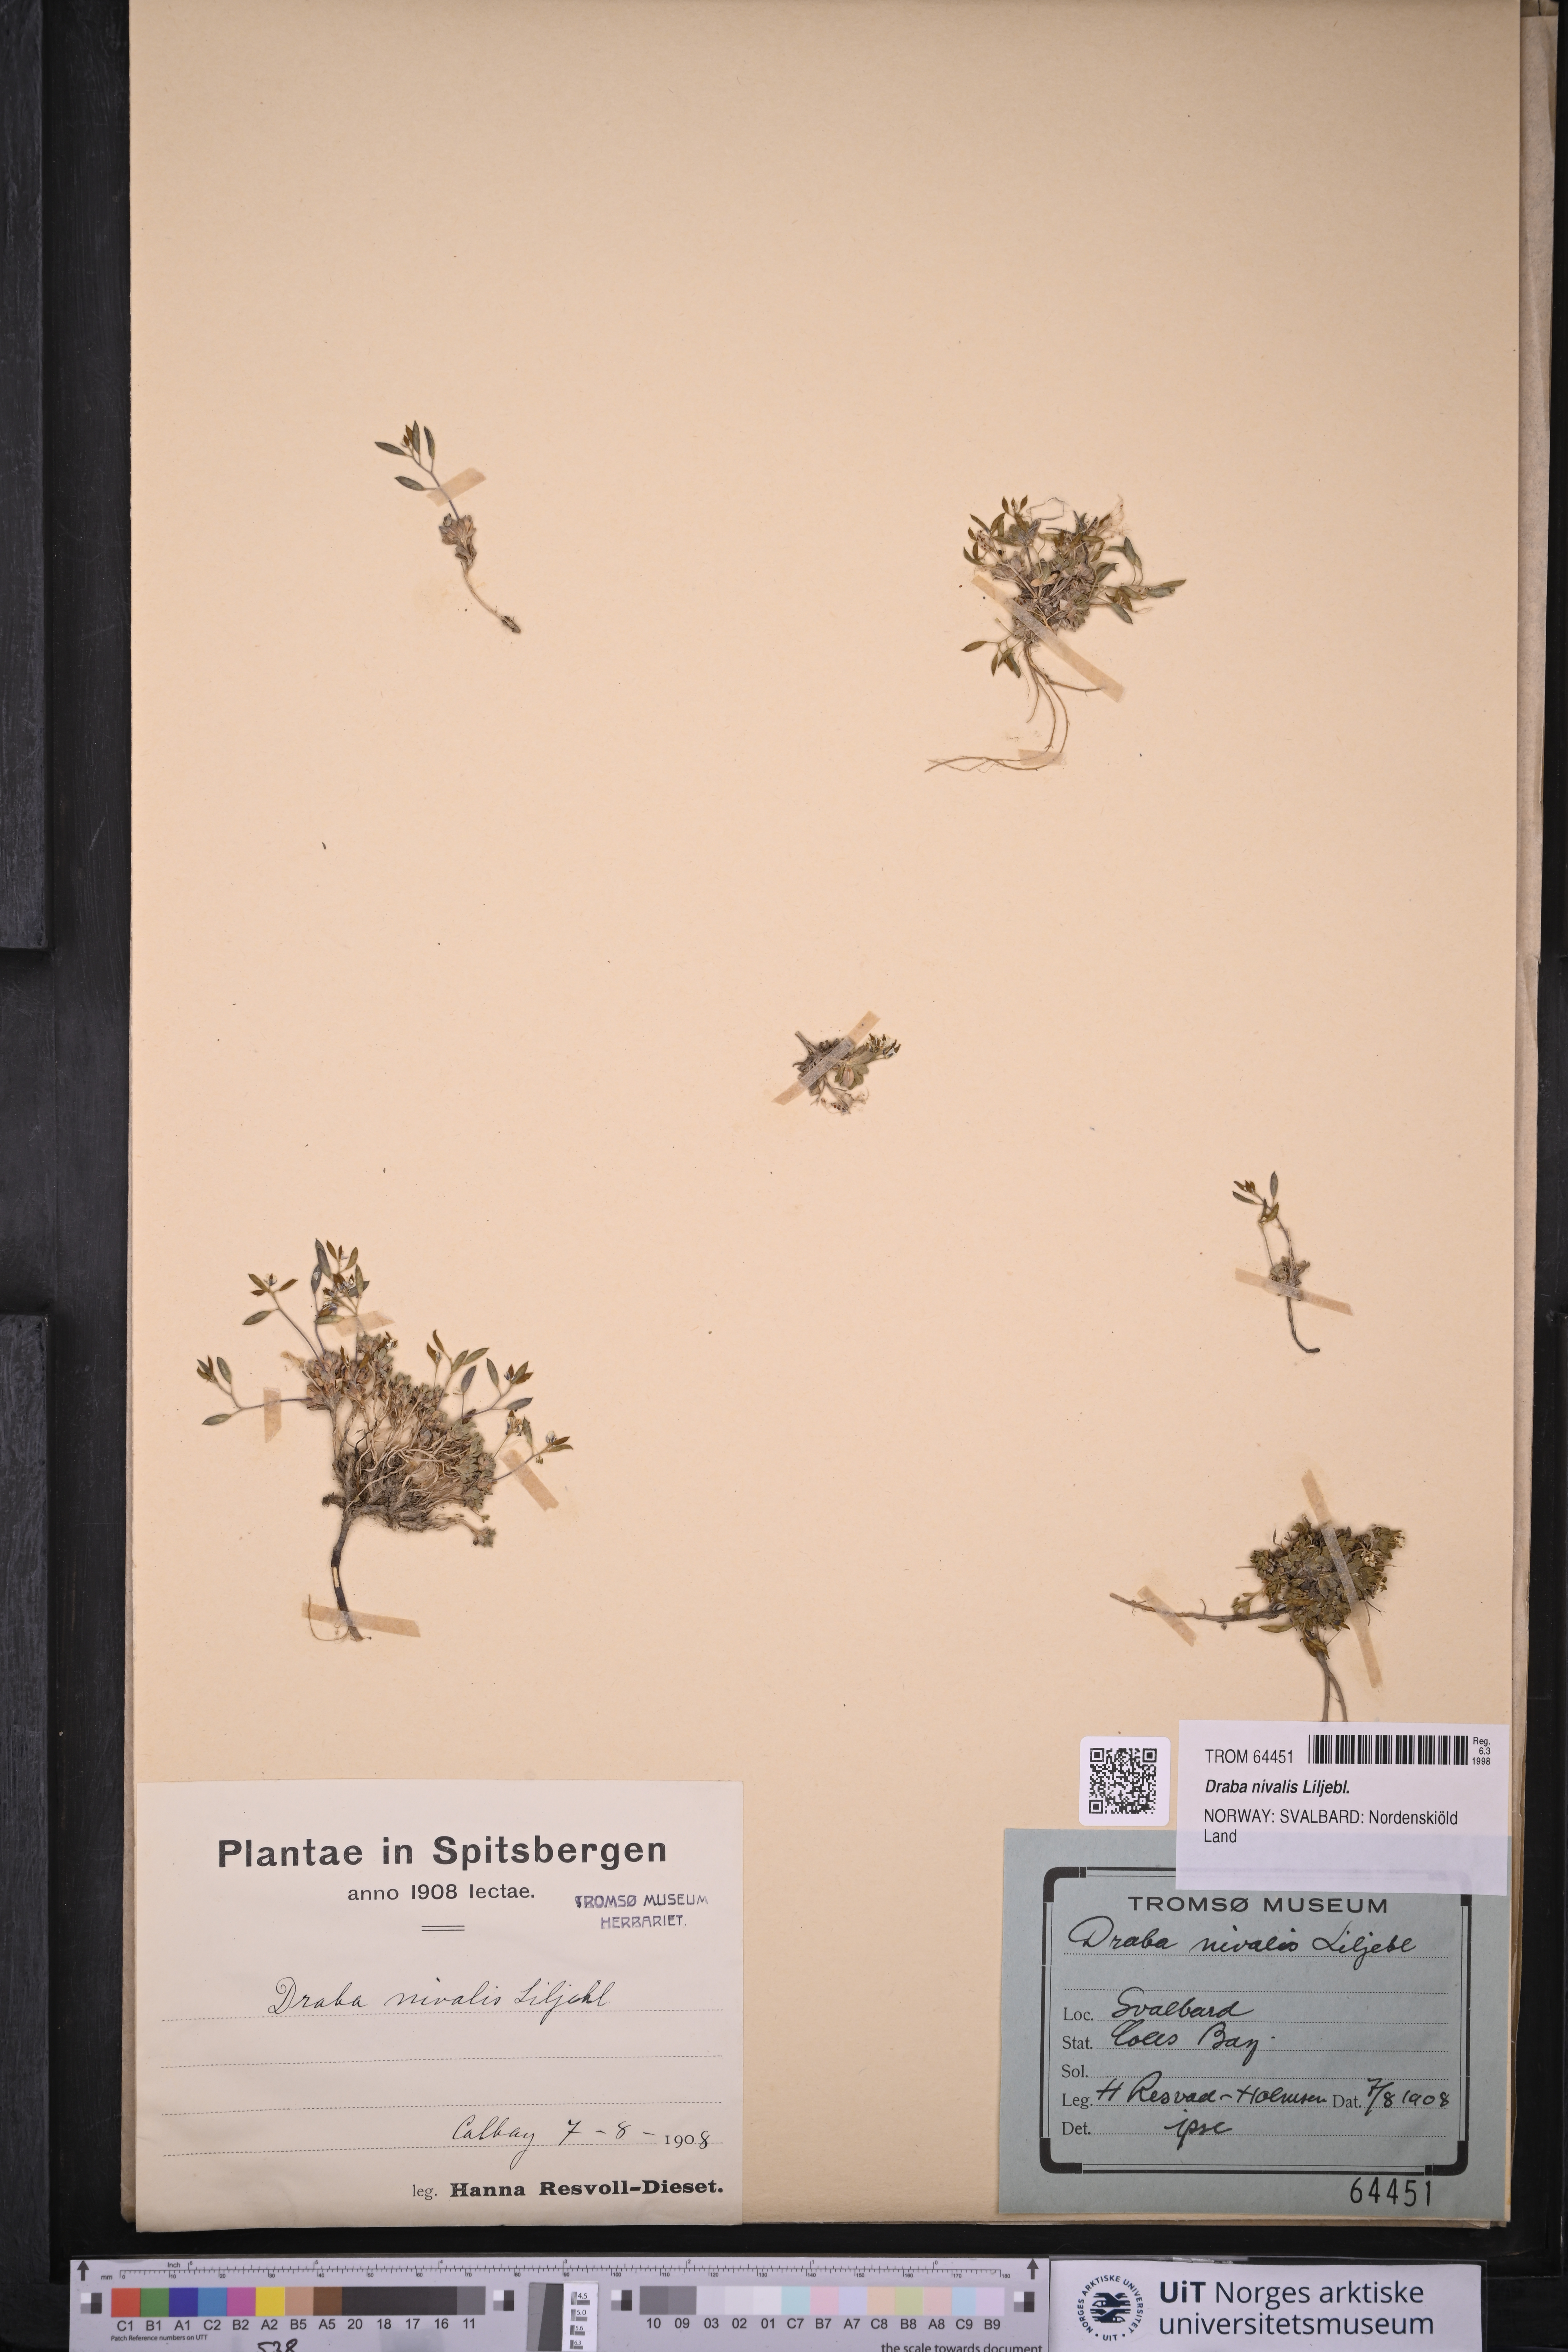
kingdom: Plantae
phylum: Tracheophyta
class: Magnoliopsida
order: Brassicales
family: Brassicaceae
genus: Draba
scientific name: Draba nivalis
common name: Snow draba
